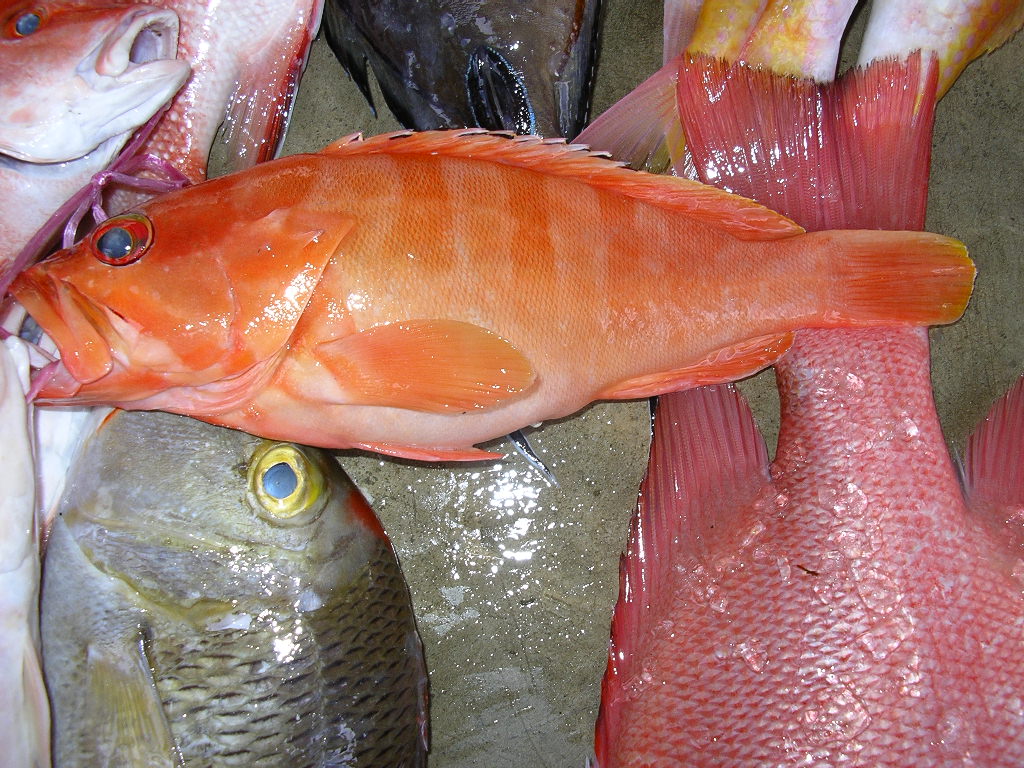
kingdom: Animalia
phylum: Chordata
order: Perciformes
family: Serranidae
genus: Epinephelus
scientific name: Epinephelus fasciatus
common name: Blacktip grouper
